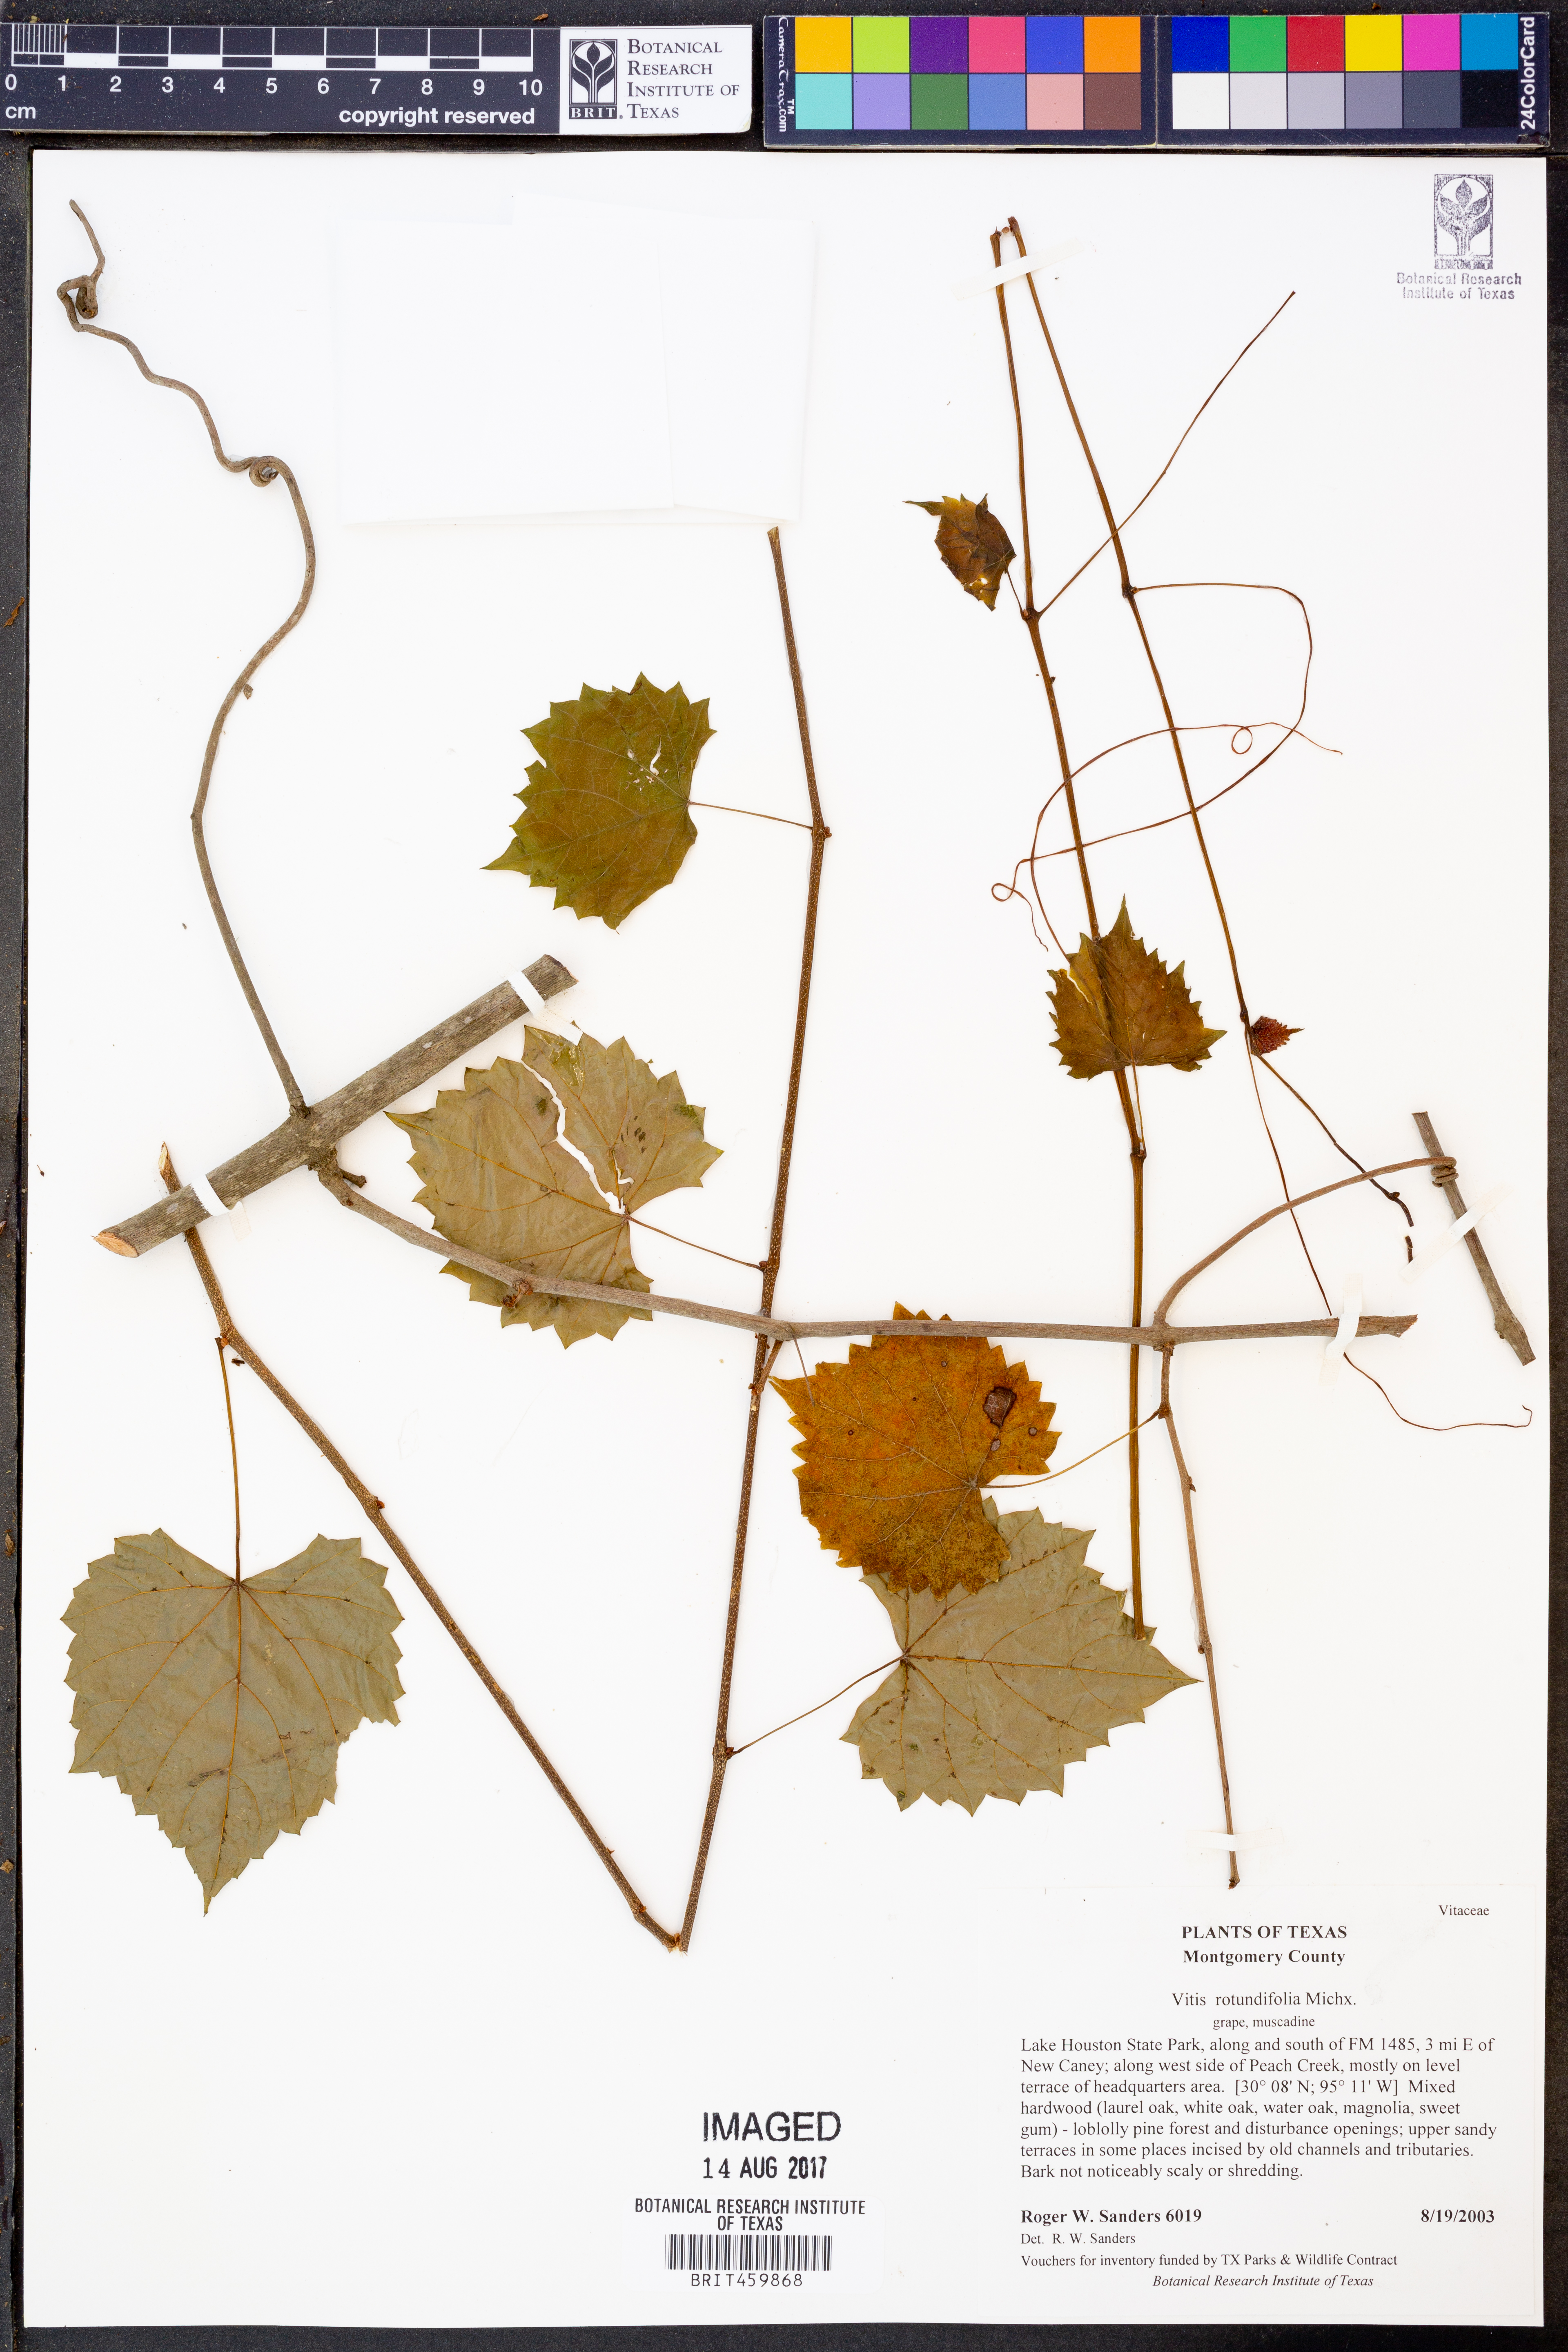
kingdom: Plantae
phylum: Tracheophyta
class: Magnoliopsida
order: Vitales
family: Vitaceae
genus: Vitis
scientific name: Vitis rotundifolia
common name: Muscadine grape
